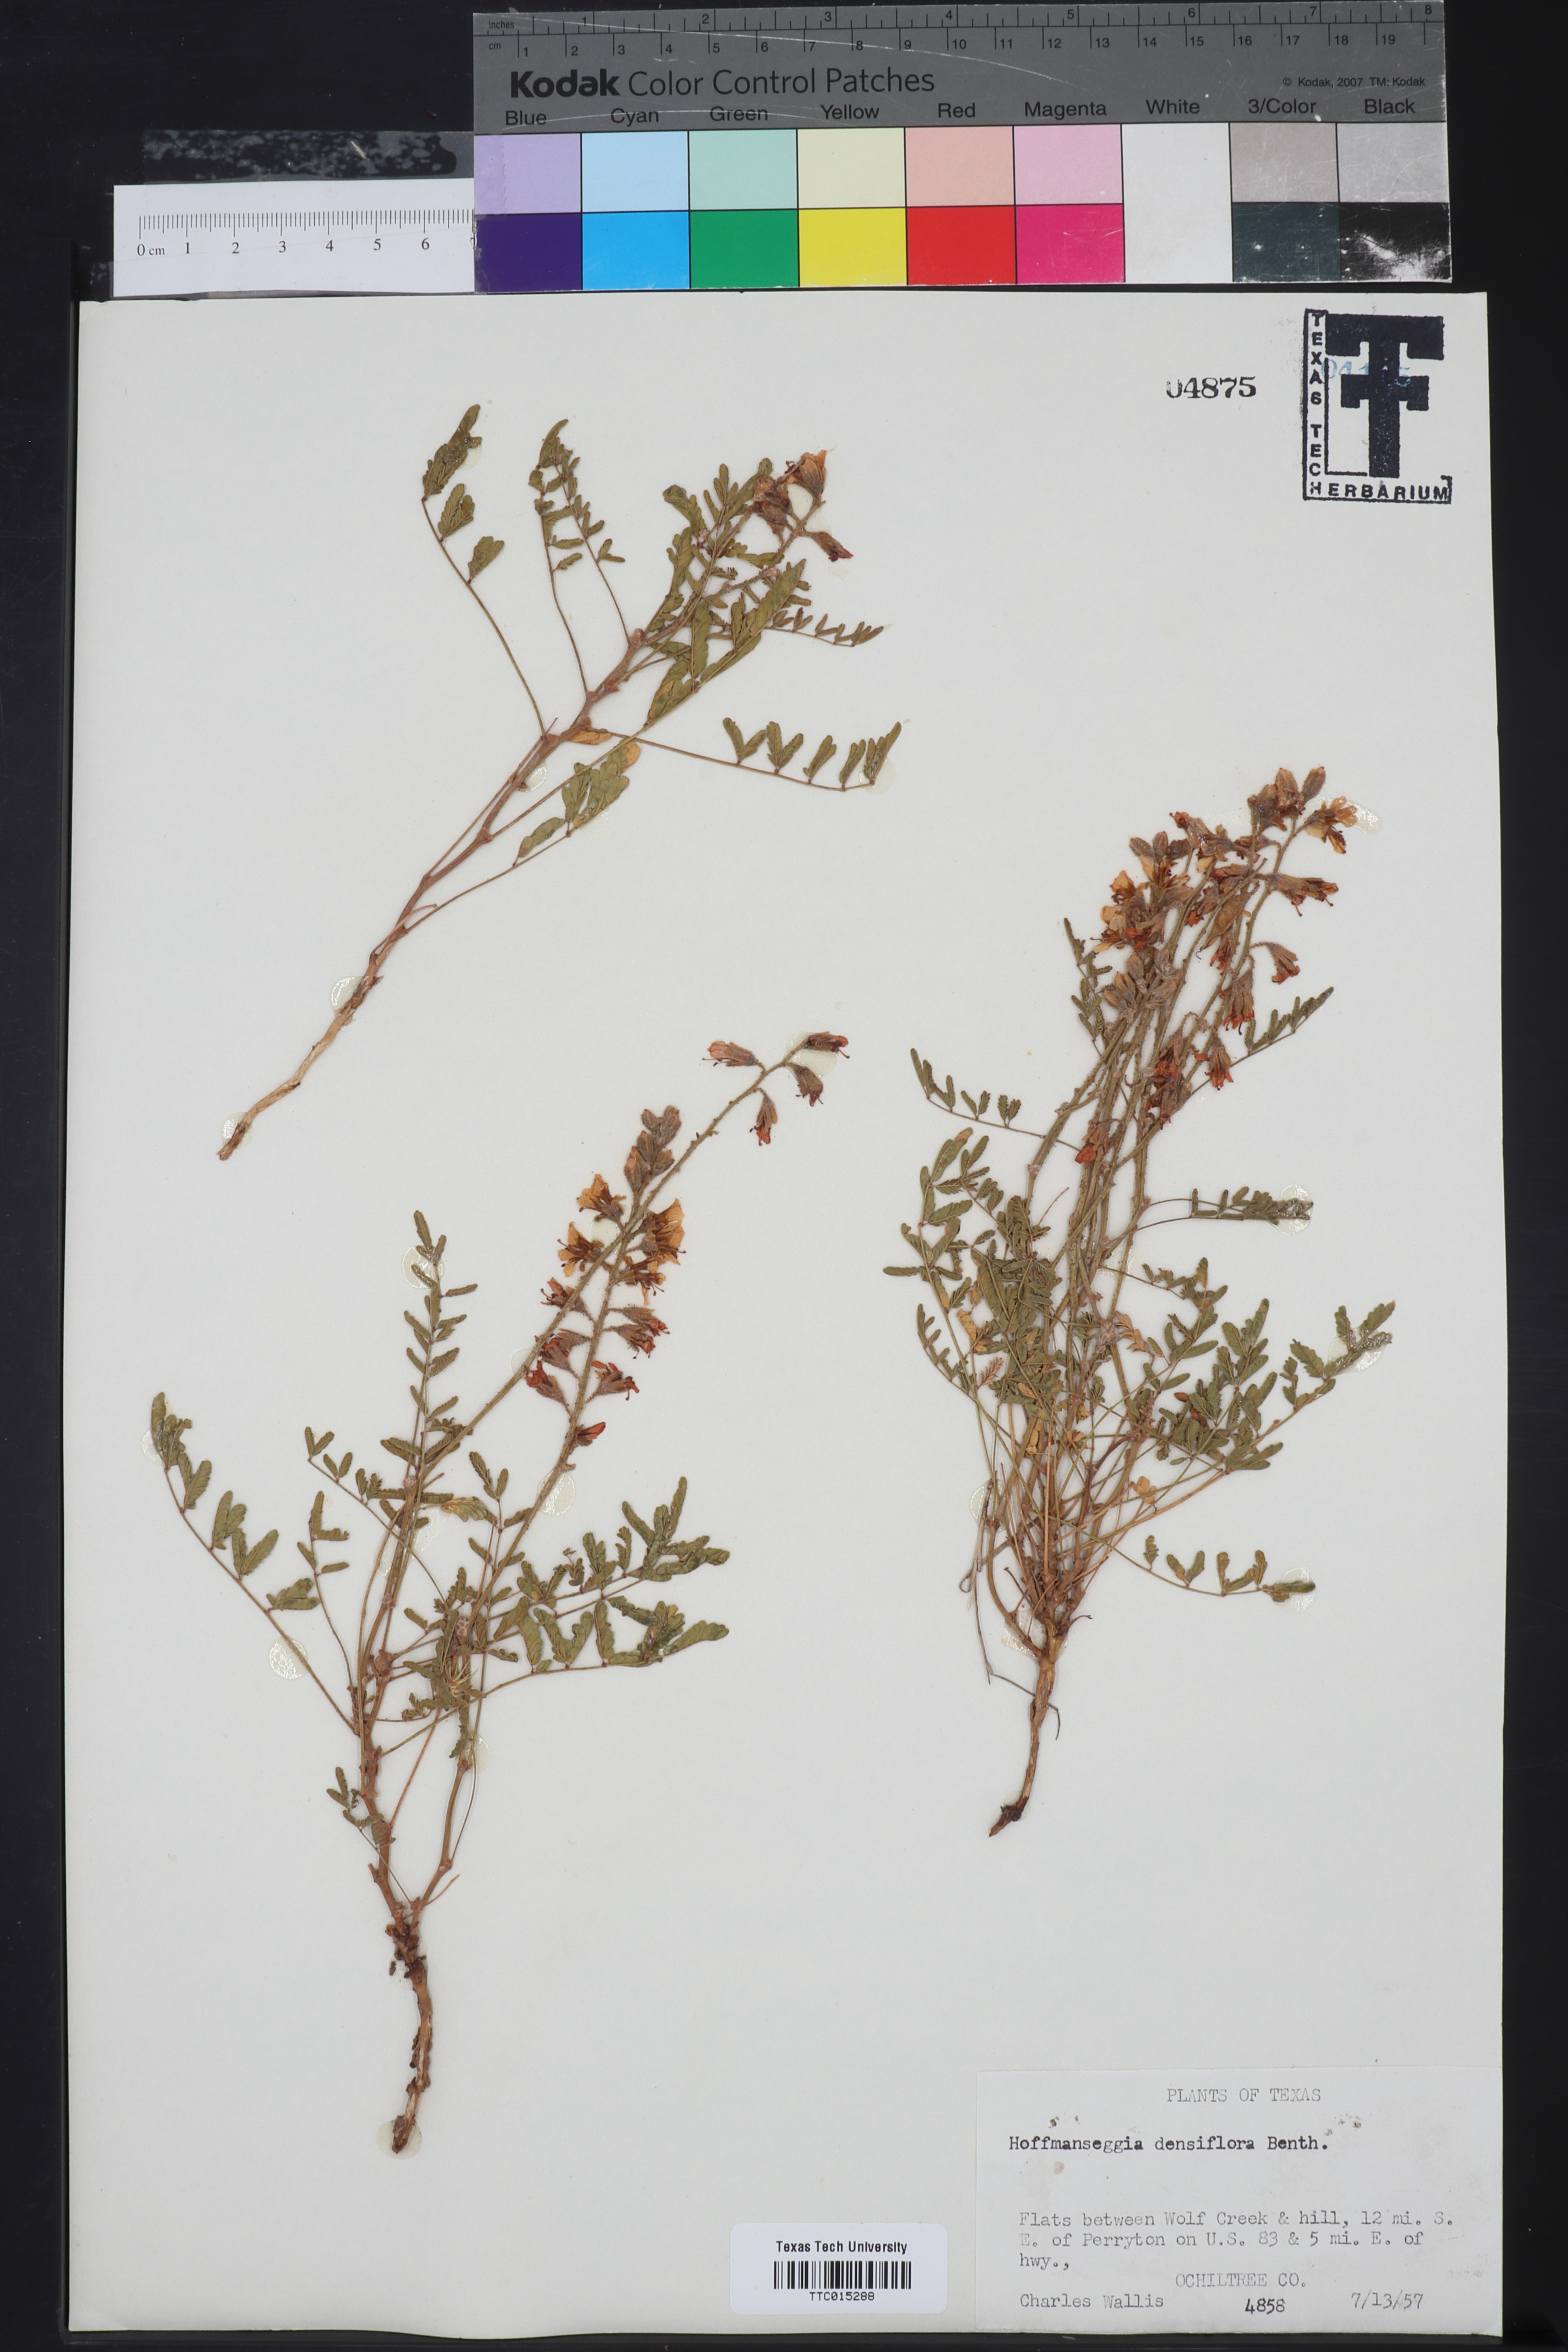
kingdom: Plantae
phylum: Tracheophyta
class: Magnoliopsida
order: Fabales
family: Fabaceae
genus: Hoffmannseggia
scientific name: Hoffmannseggia glauca
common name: Pignut
